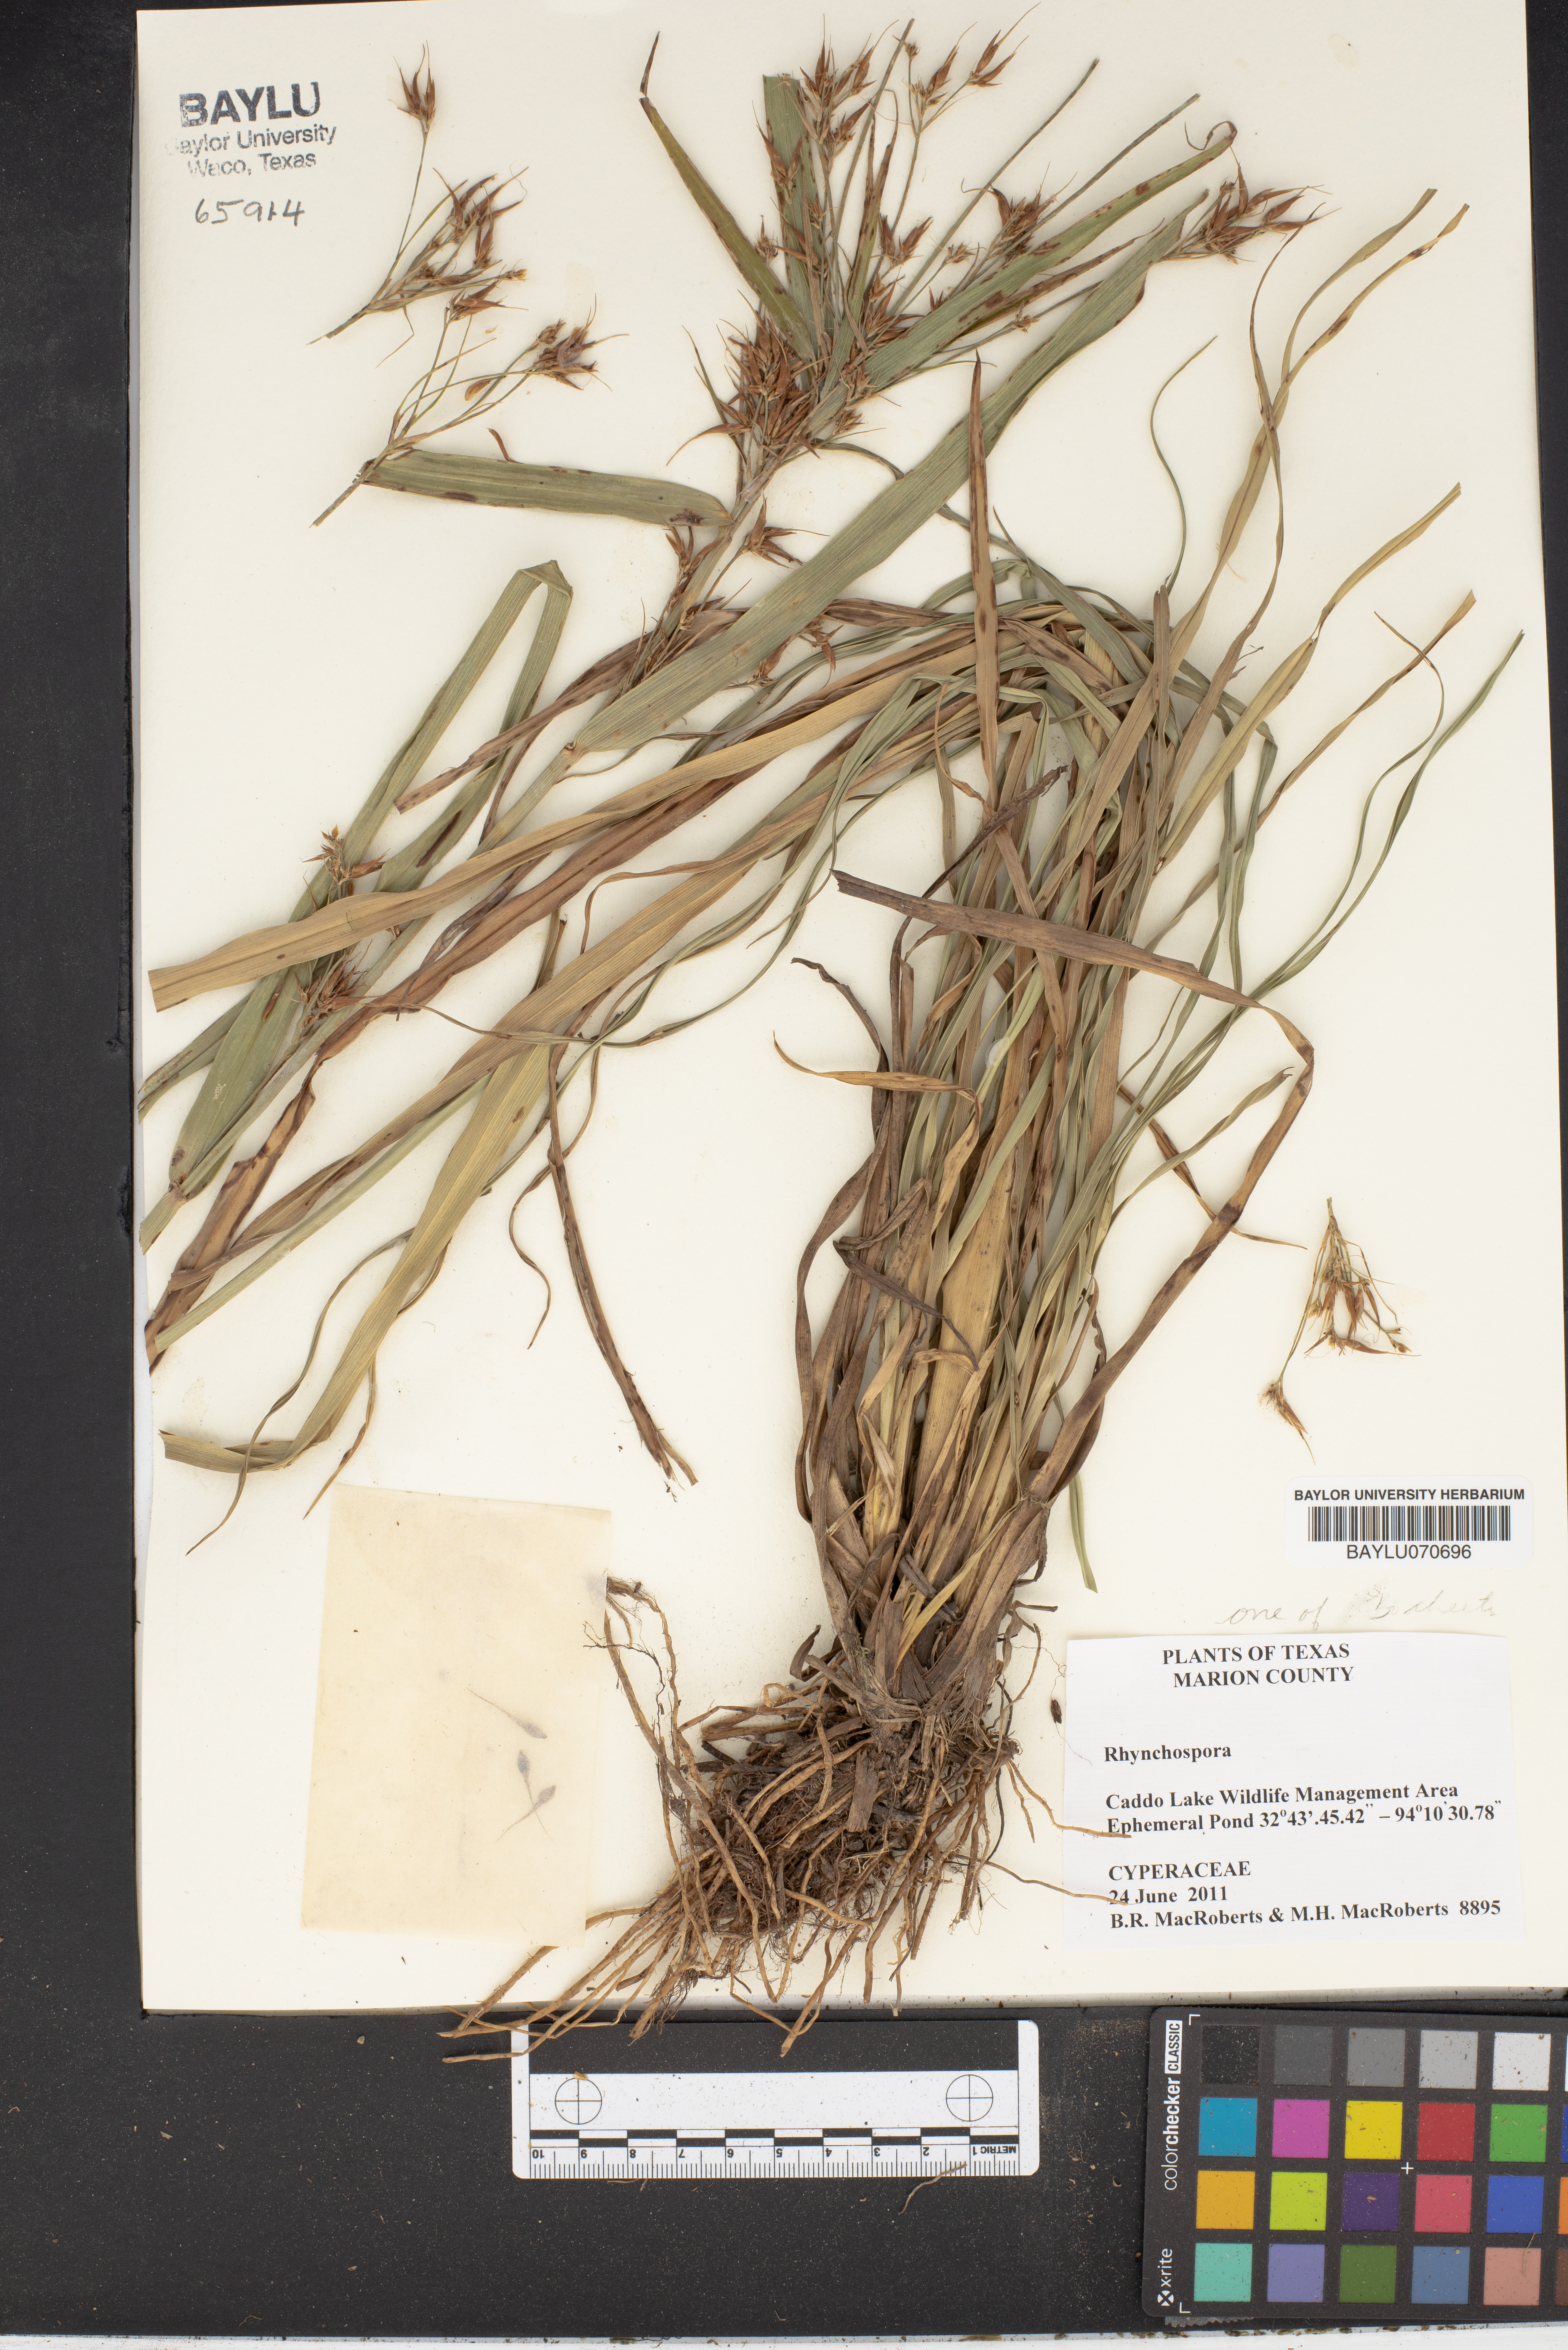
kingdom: Plantae
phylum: Tracheophyta
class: Liliopsida
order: Poales
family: Cyperaceae
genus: Rhynchospora
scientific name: Rhynchospora
